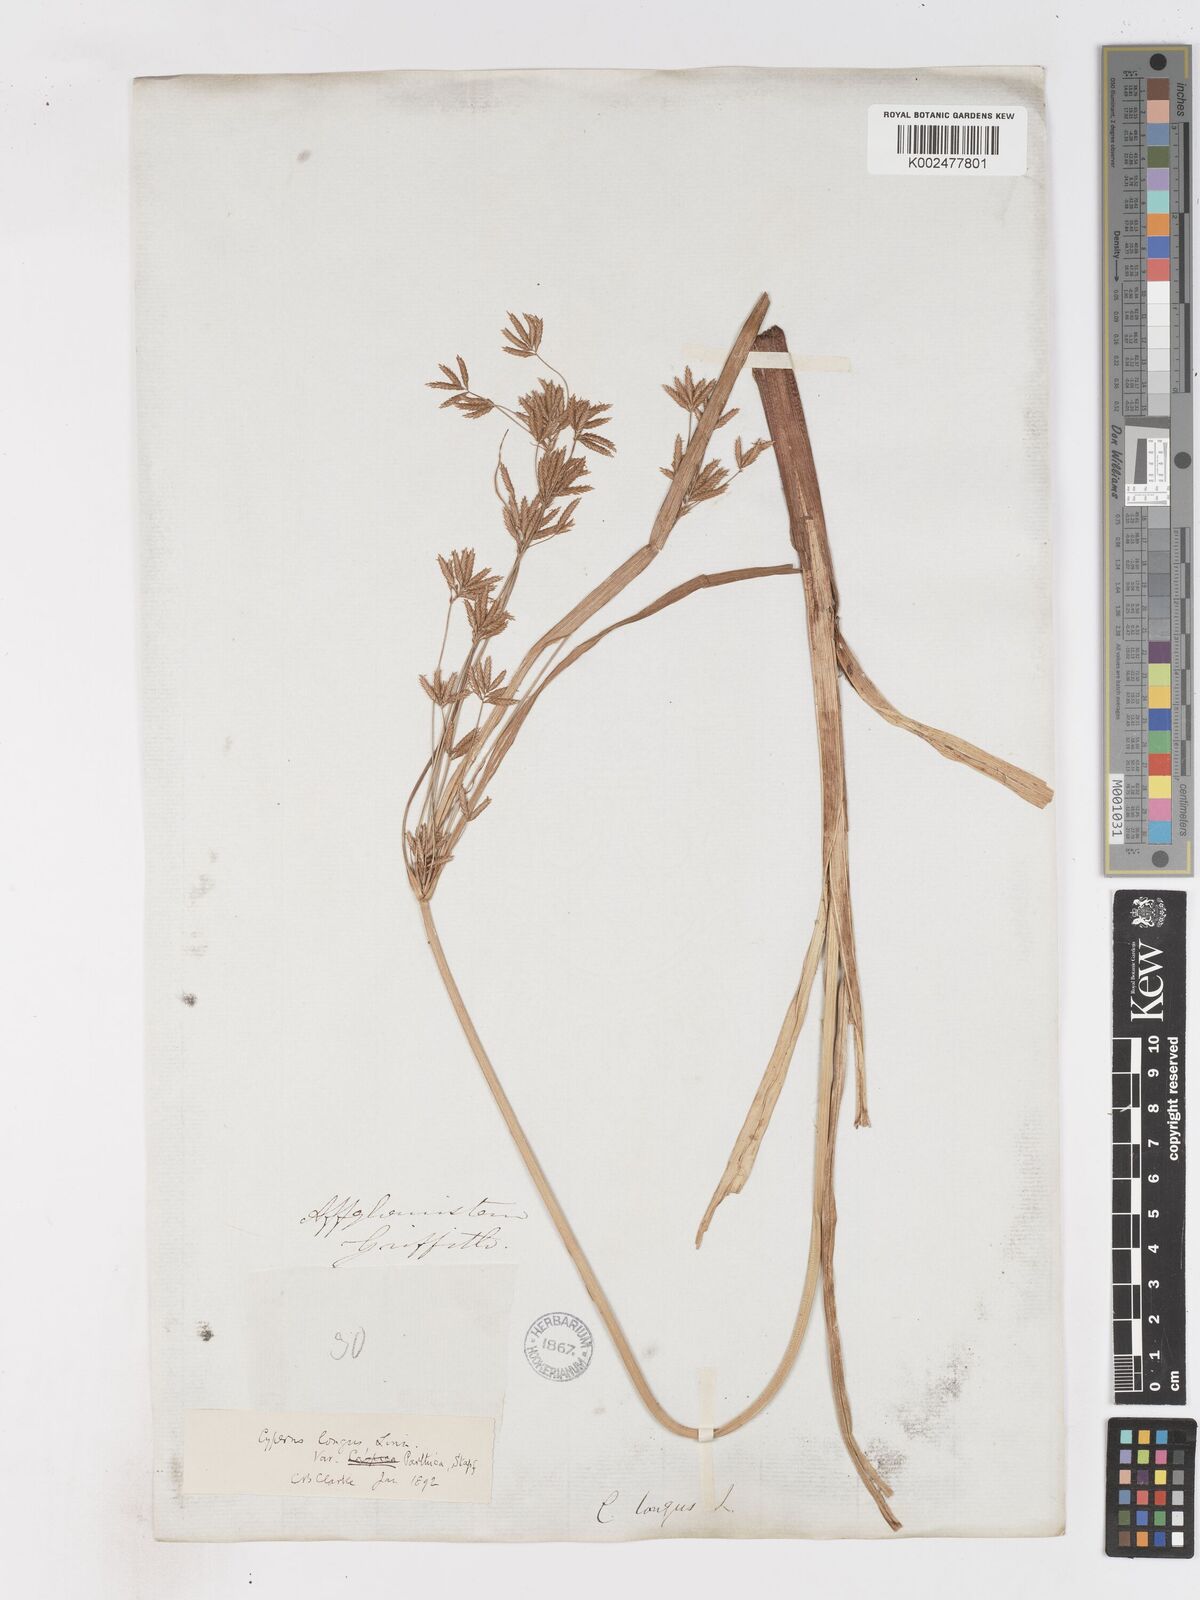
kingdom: Plantae
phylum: Tracheophyta
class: Liliopsida
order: Poales
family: Cyperaceae
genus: Cyperus
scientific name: Cyperus longus
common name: Galingale
